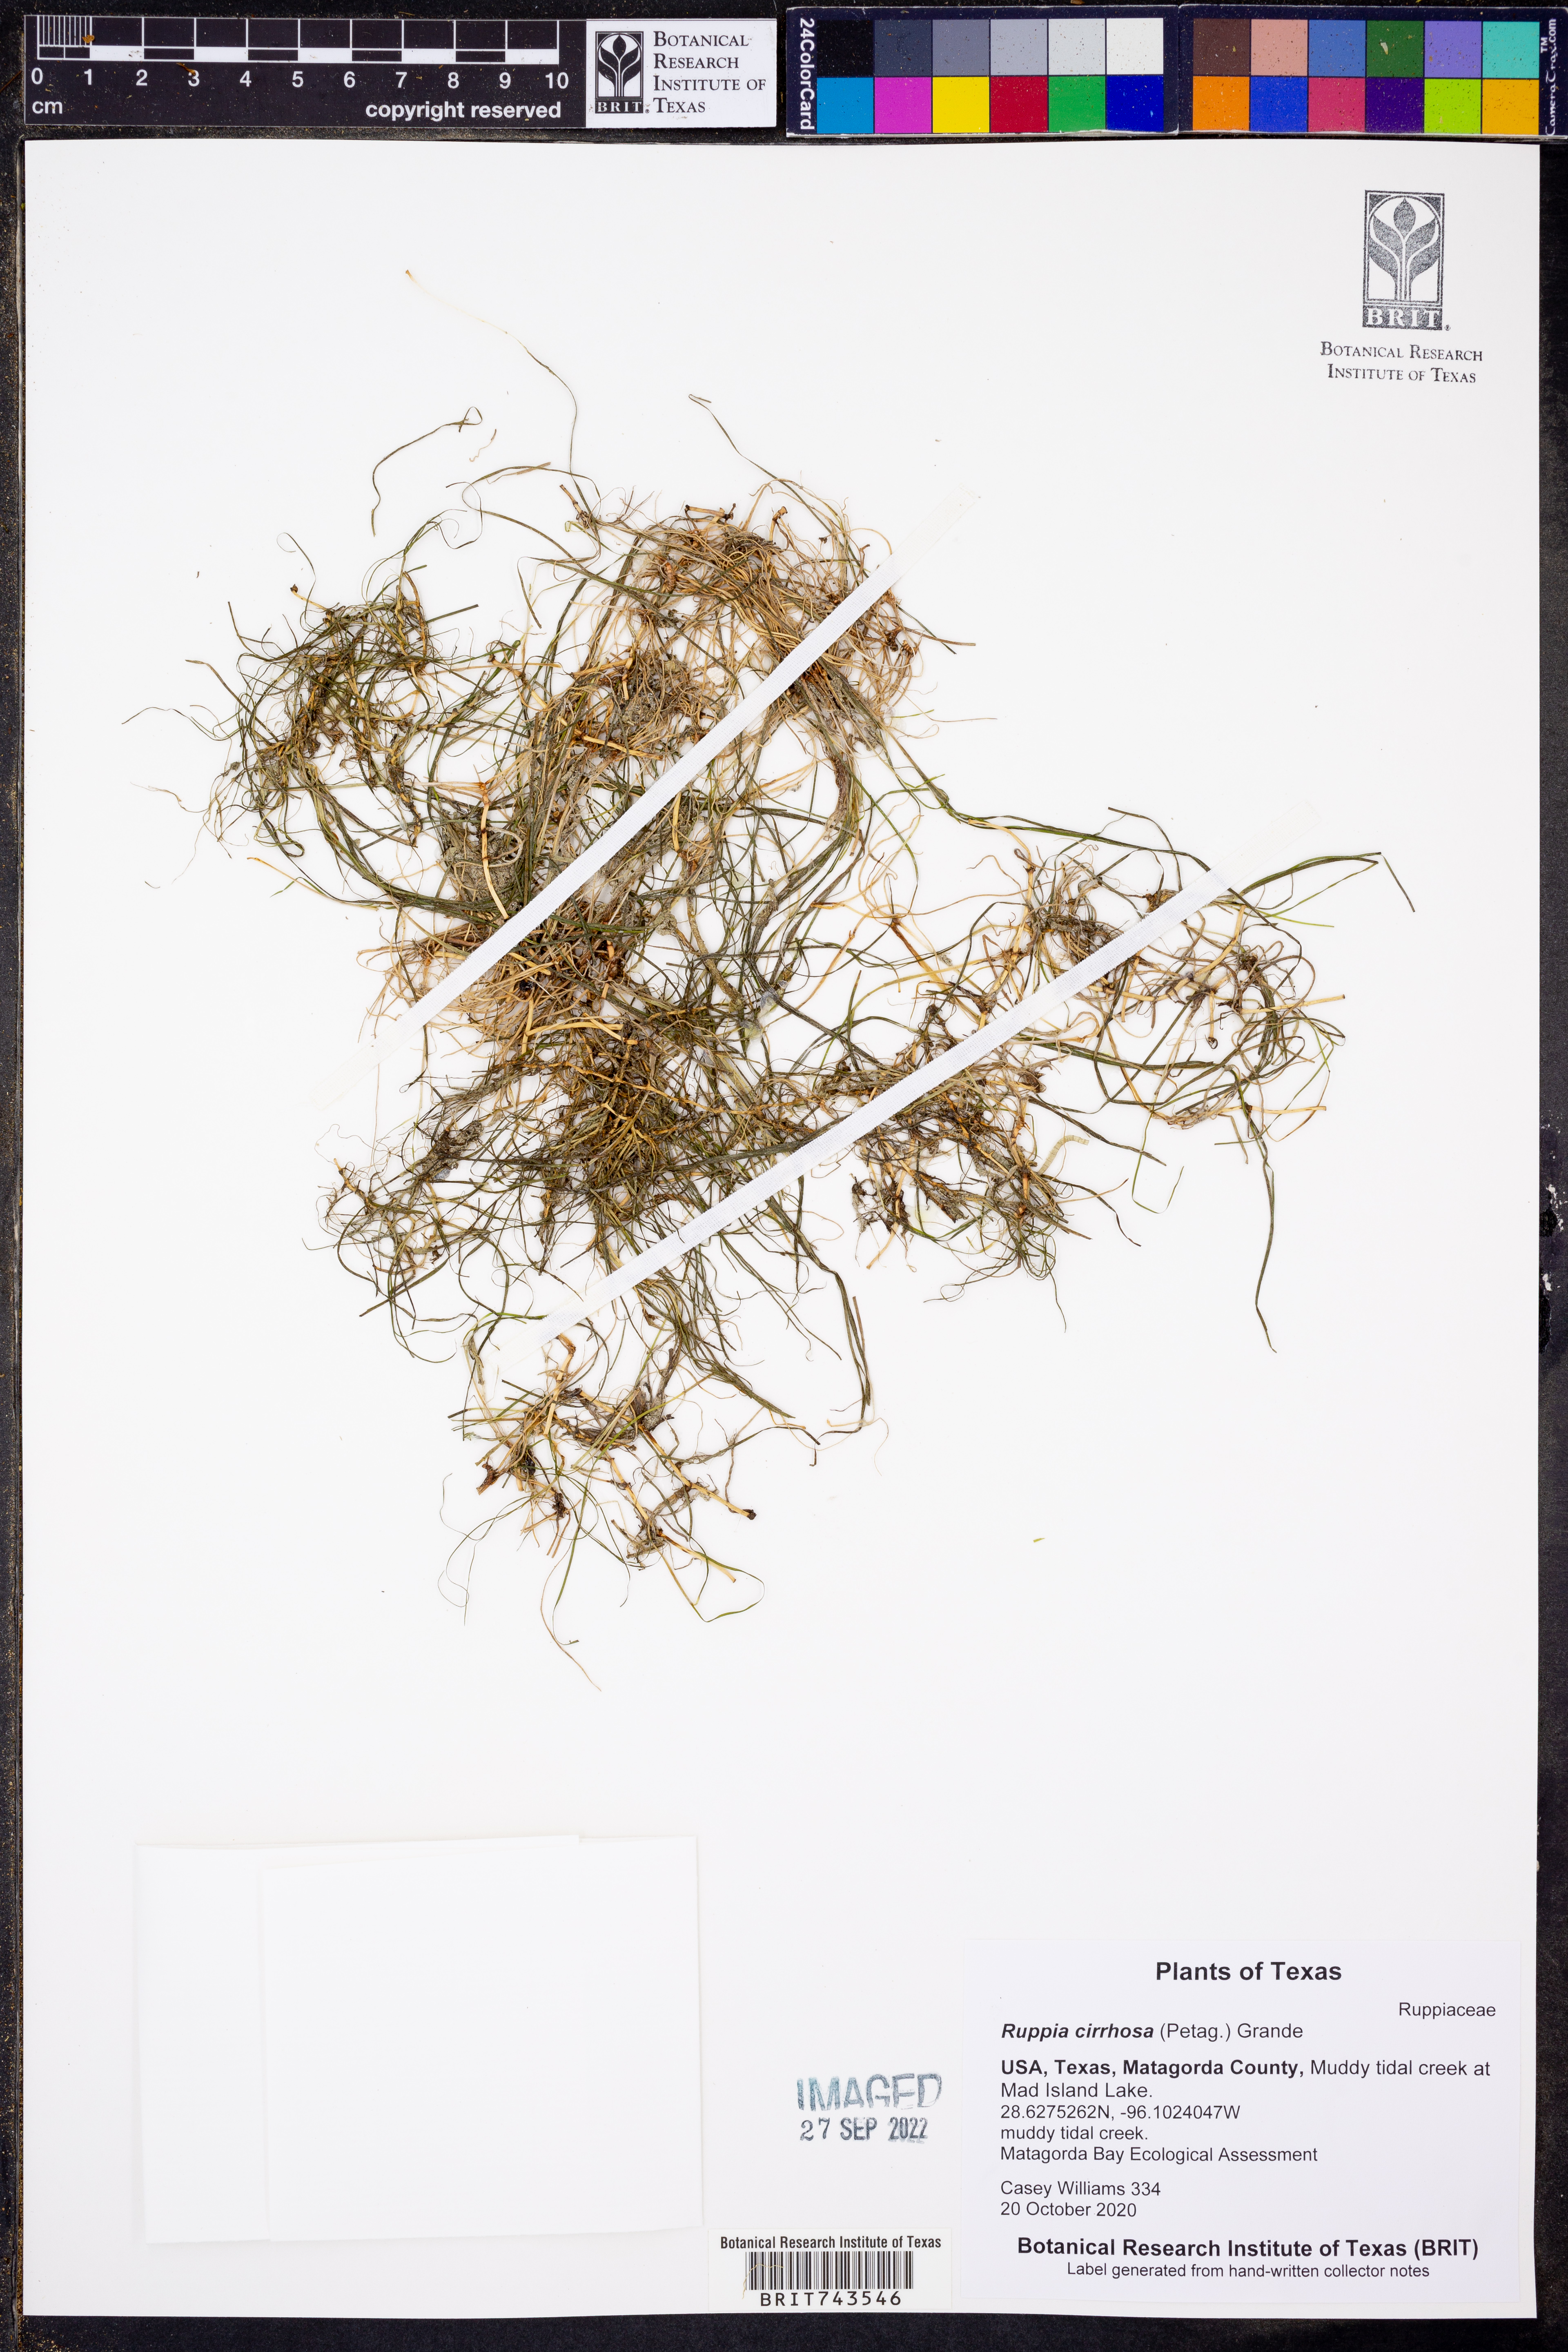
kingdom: Plantae
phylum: Tracheophyta
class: Liliopsida
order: Alismatales
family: Ruppiaceae
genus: Ruppia
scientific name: Ruppia cirrhosa
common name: Spiral tasselweed
